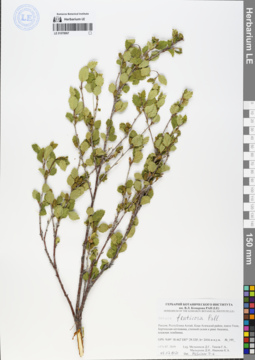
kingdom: Plantae
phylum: Tracheophyta
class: Magnoliopsida
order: Fagales
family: Betulaceae
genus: Betula
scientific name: Betula fruticosa
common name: Japanese bog birch
